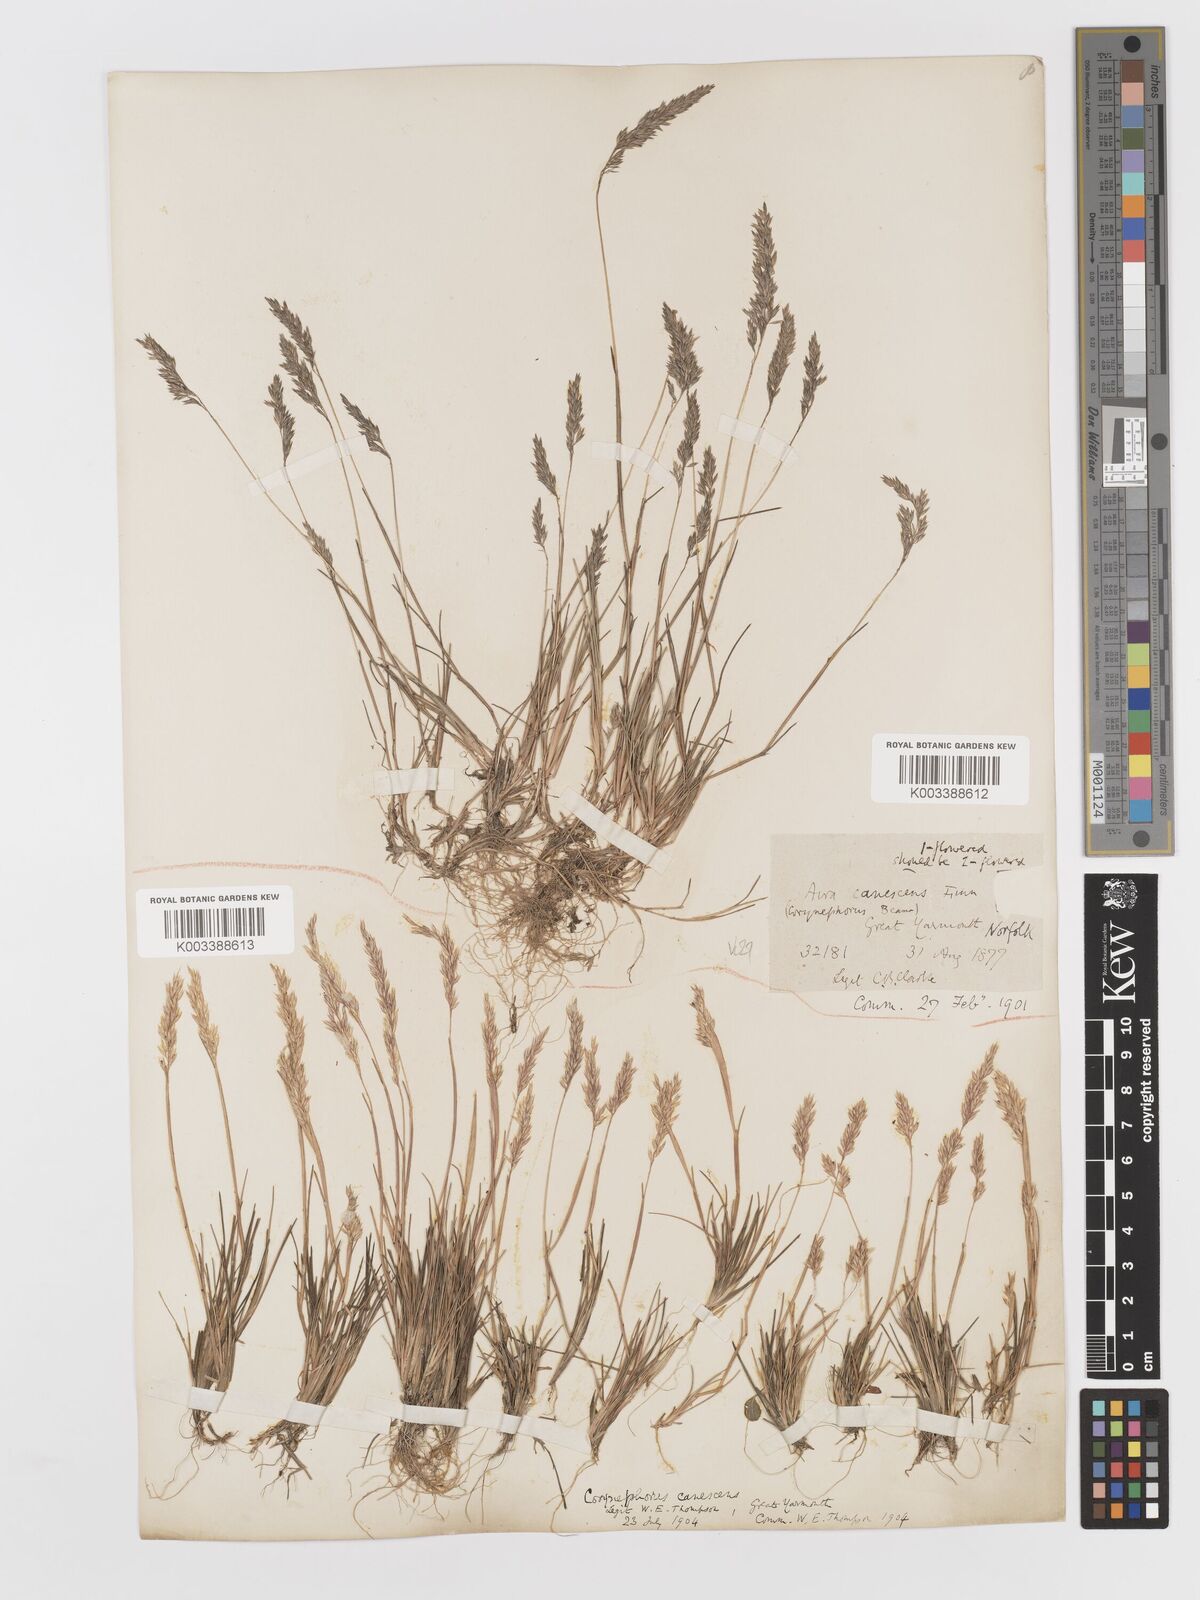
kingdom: Plantae
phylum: Tracheophyta
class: Liliopsida
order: Poales
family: Poaceae
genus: Corynephorus
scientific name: Corynephorus canescens
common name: Grey hair-grass
